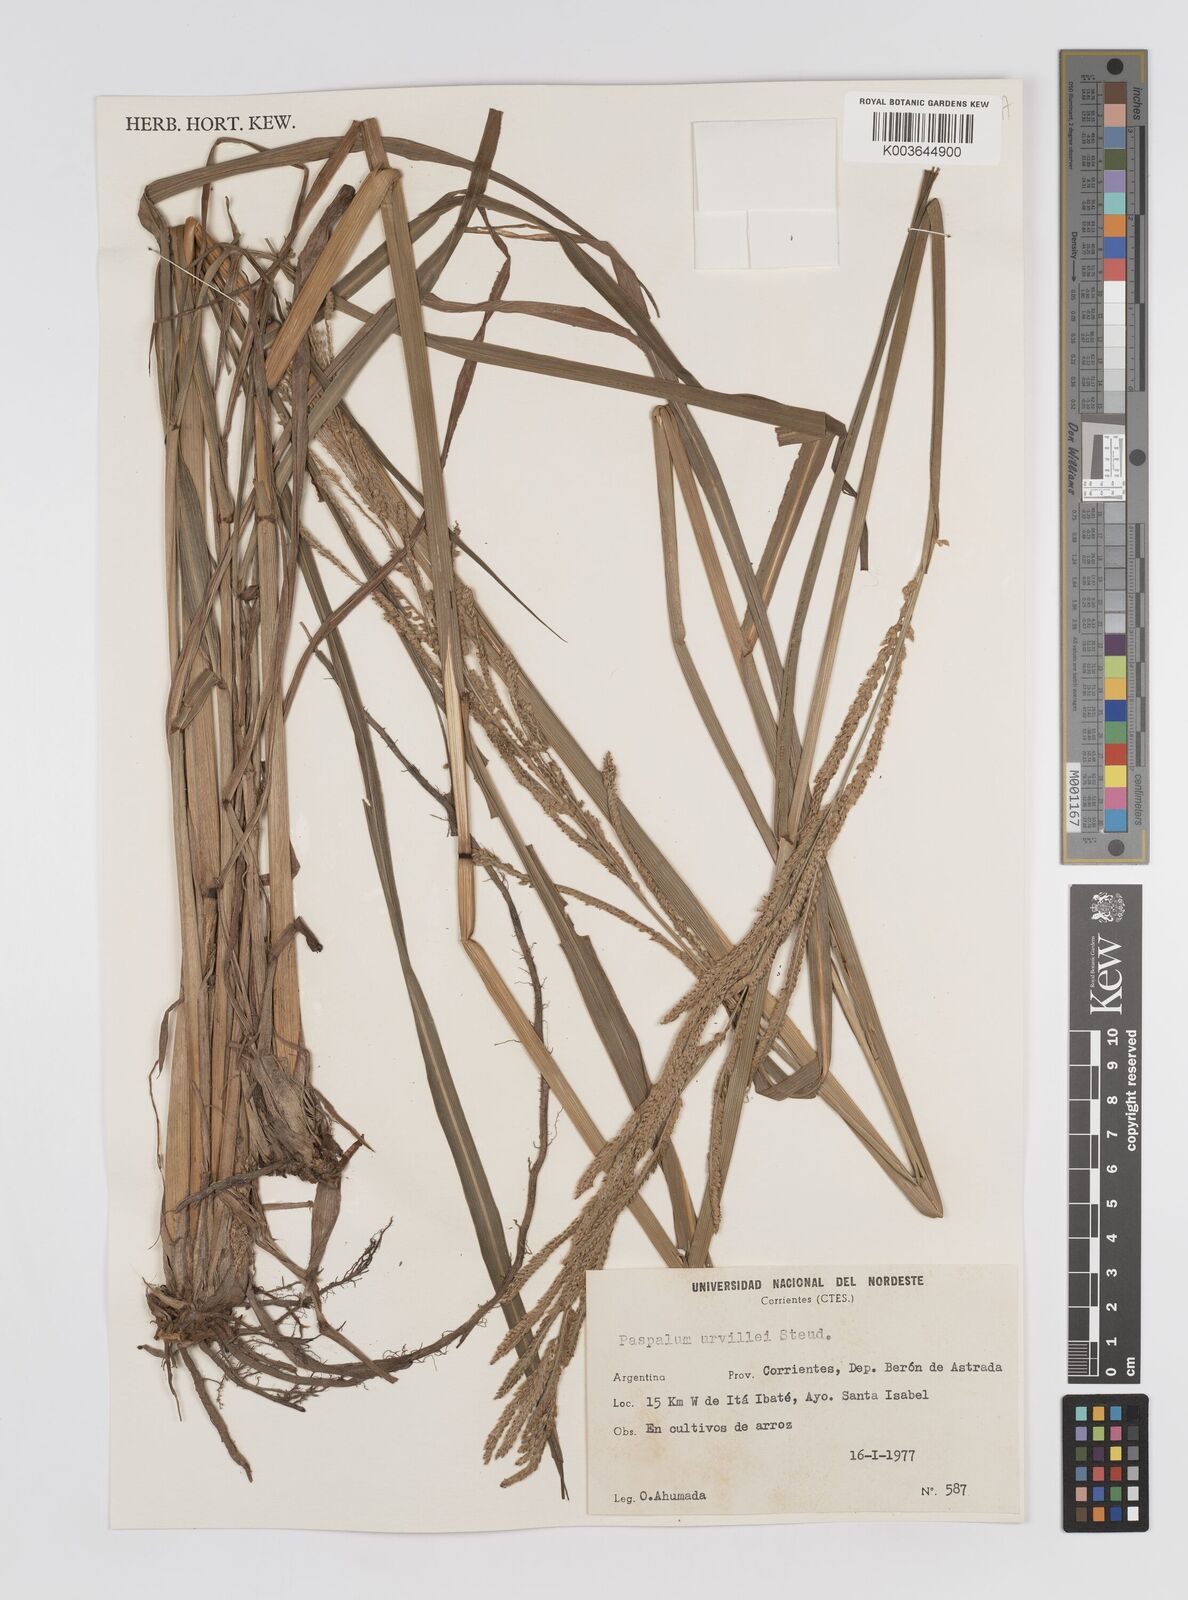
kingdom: Plantae
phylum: Tracheophyta
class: Liliopsida
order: Poales
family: Poaceae
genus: Paspalum
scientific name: Paspalum urvillei
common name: Vasey's grass
